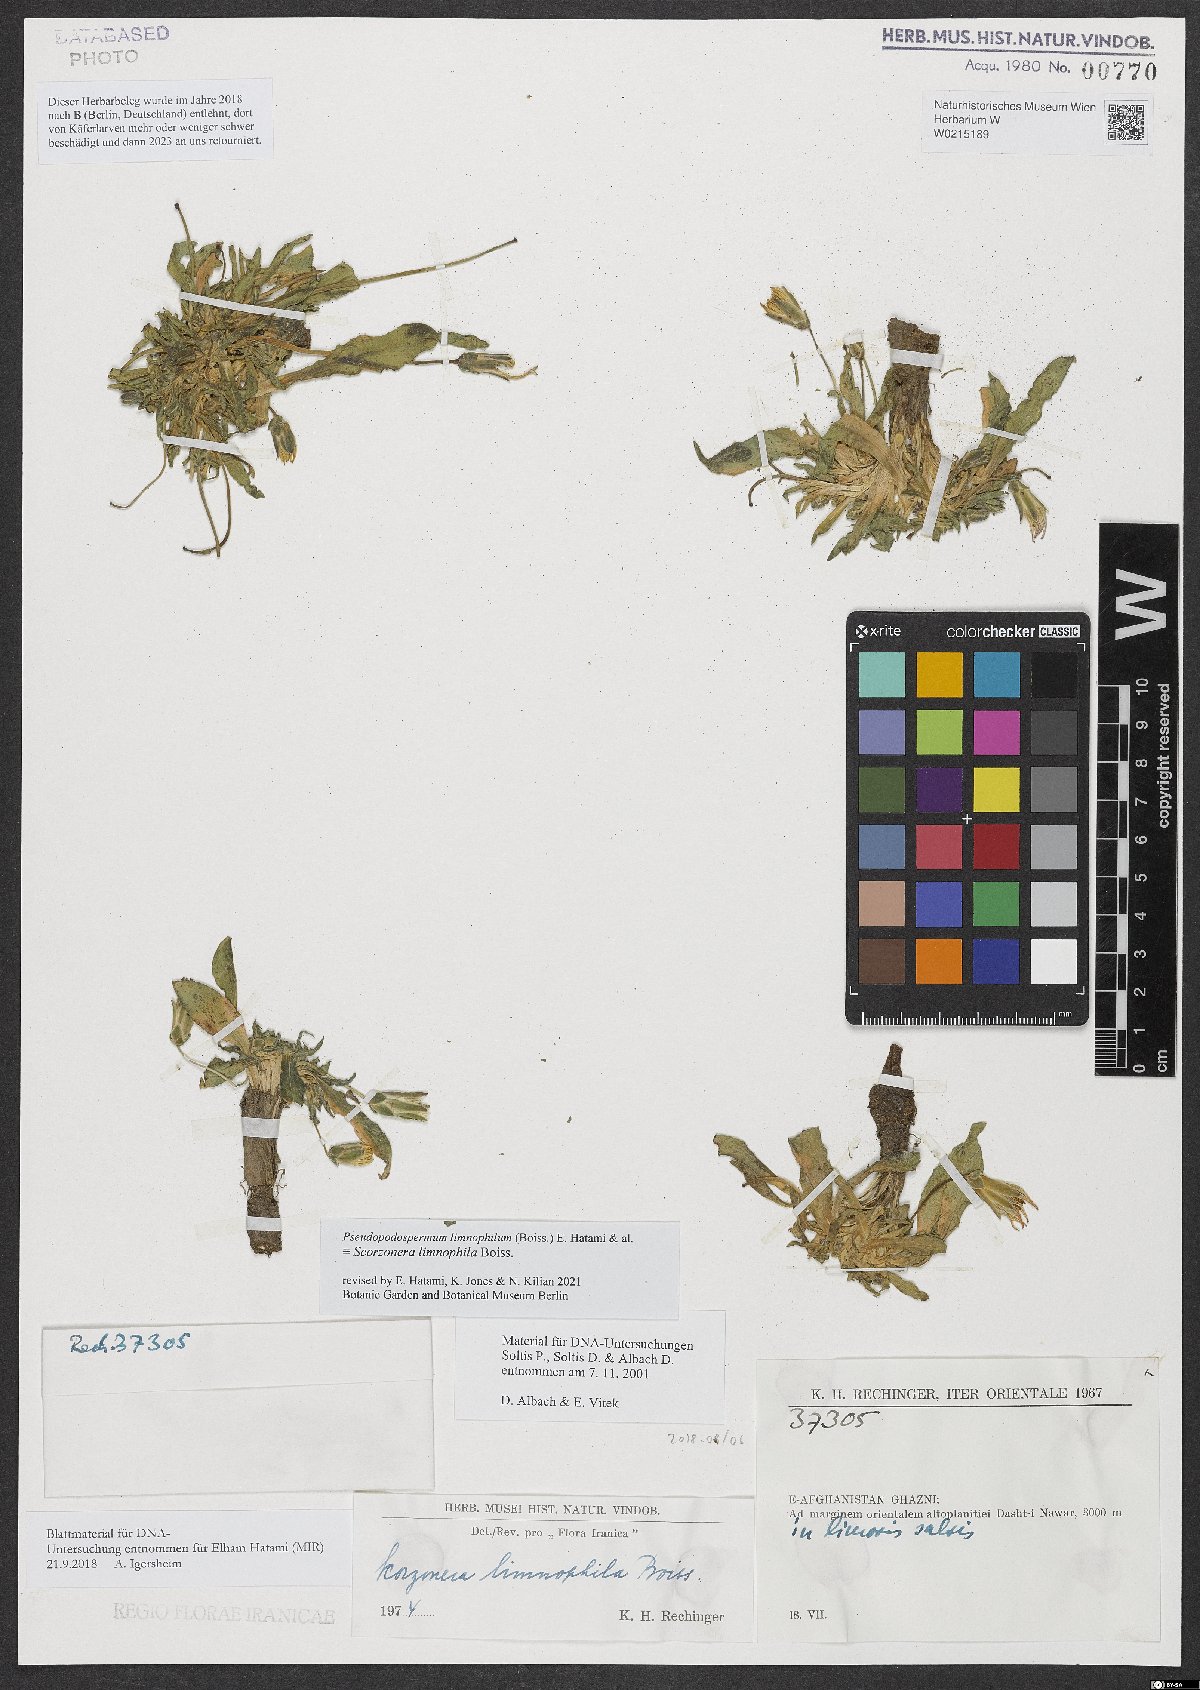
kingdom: Plantae
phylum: Tracheophyta
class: Magnoliopsida
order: Asterales
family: Asteraceae
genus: Scorzonera
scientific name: Scorzonera limnophila
